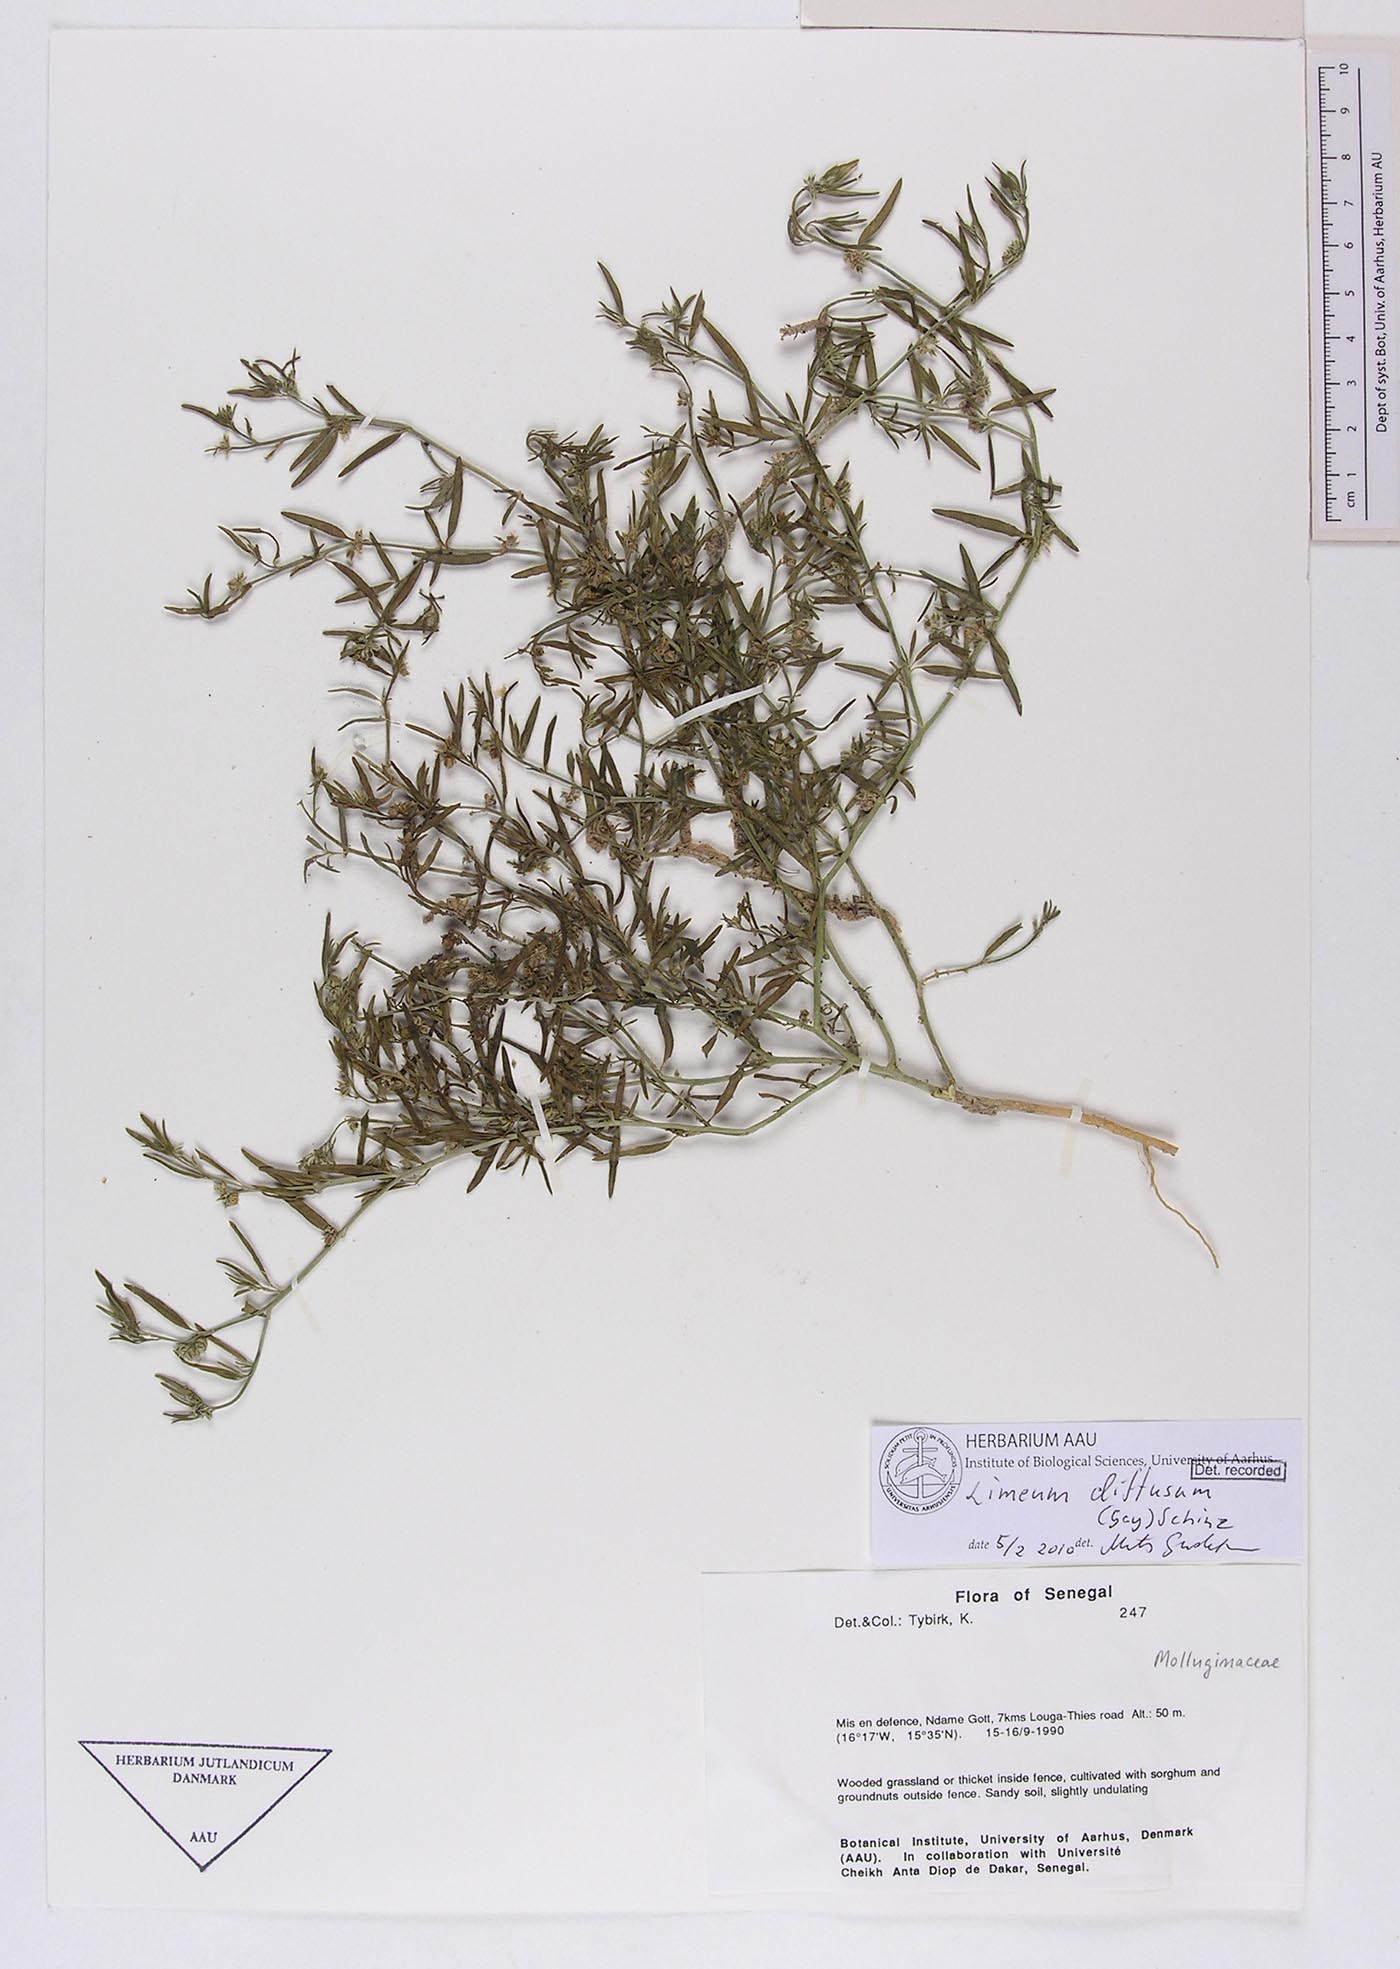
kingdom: Plantae
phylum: Tracheophyta
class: Magnoliopsida
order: Caryophyllales
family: Limeaceae
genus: Limeum
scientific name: Limeum diffusum
